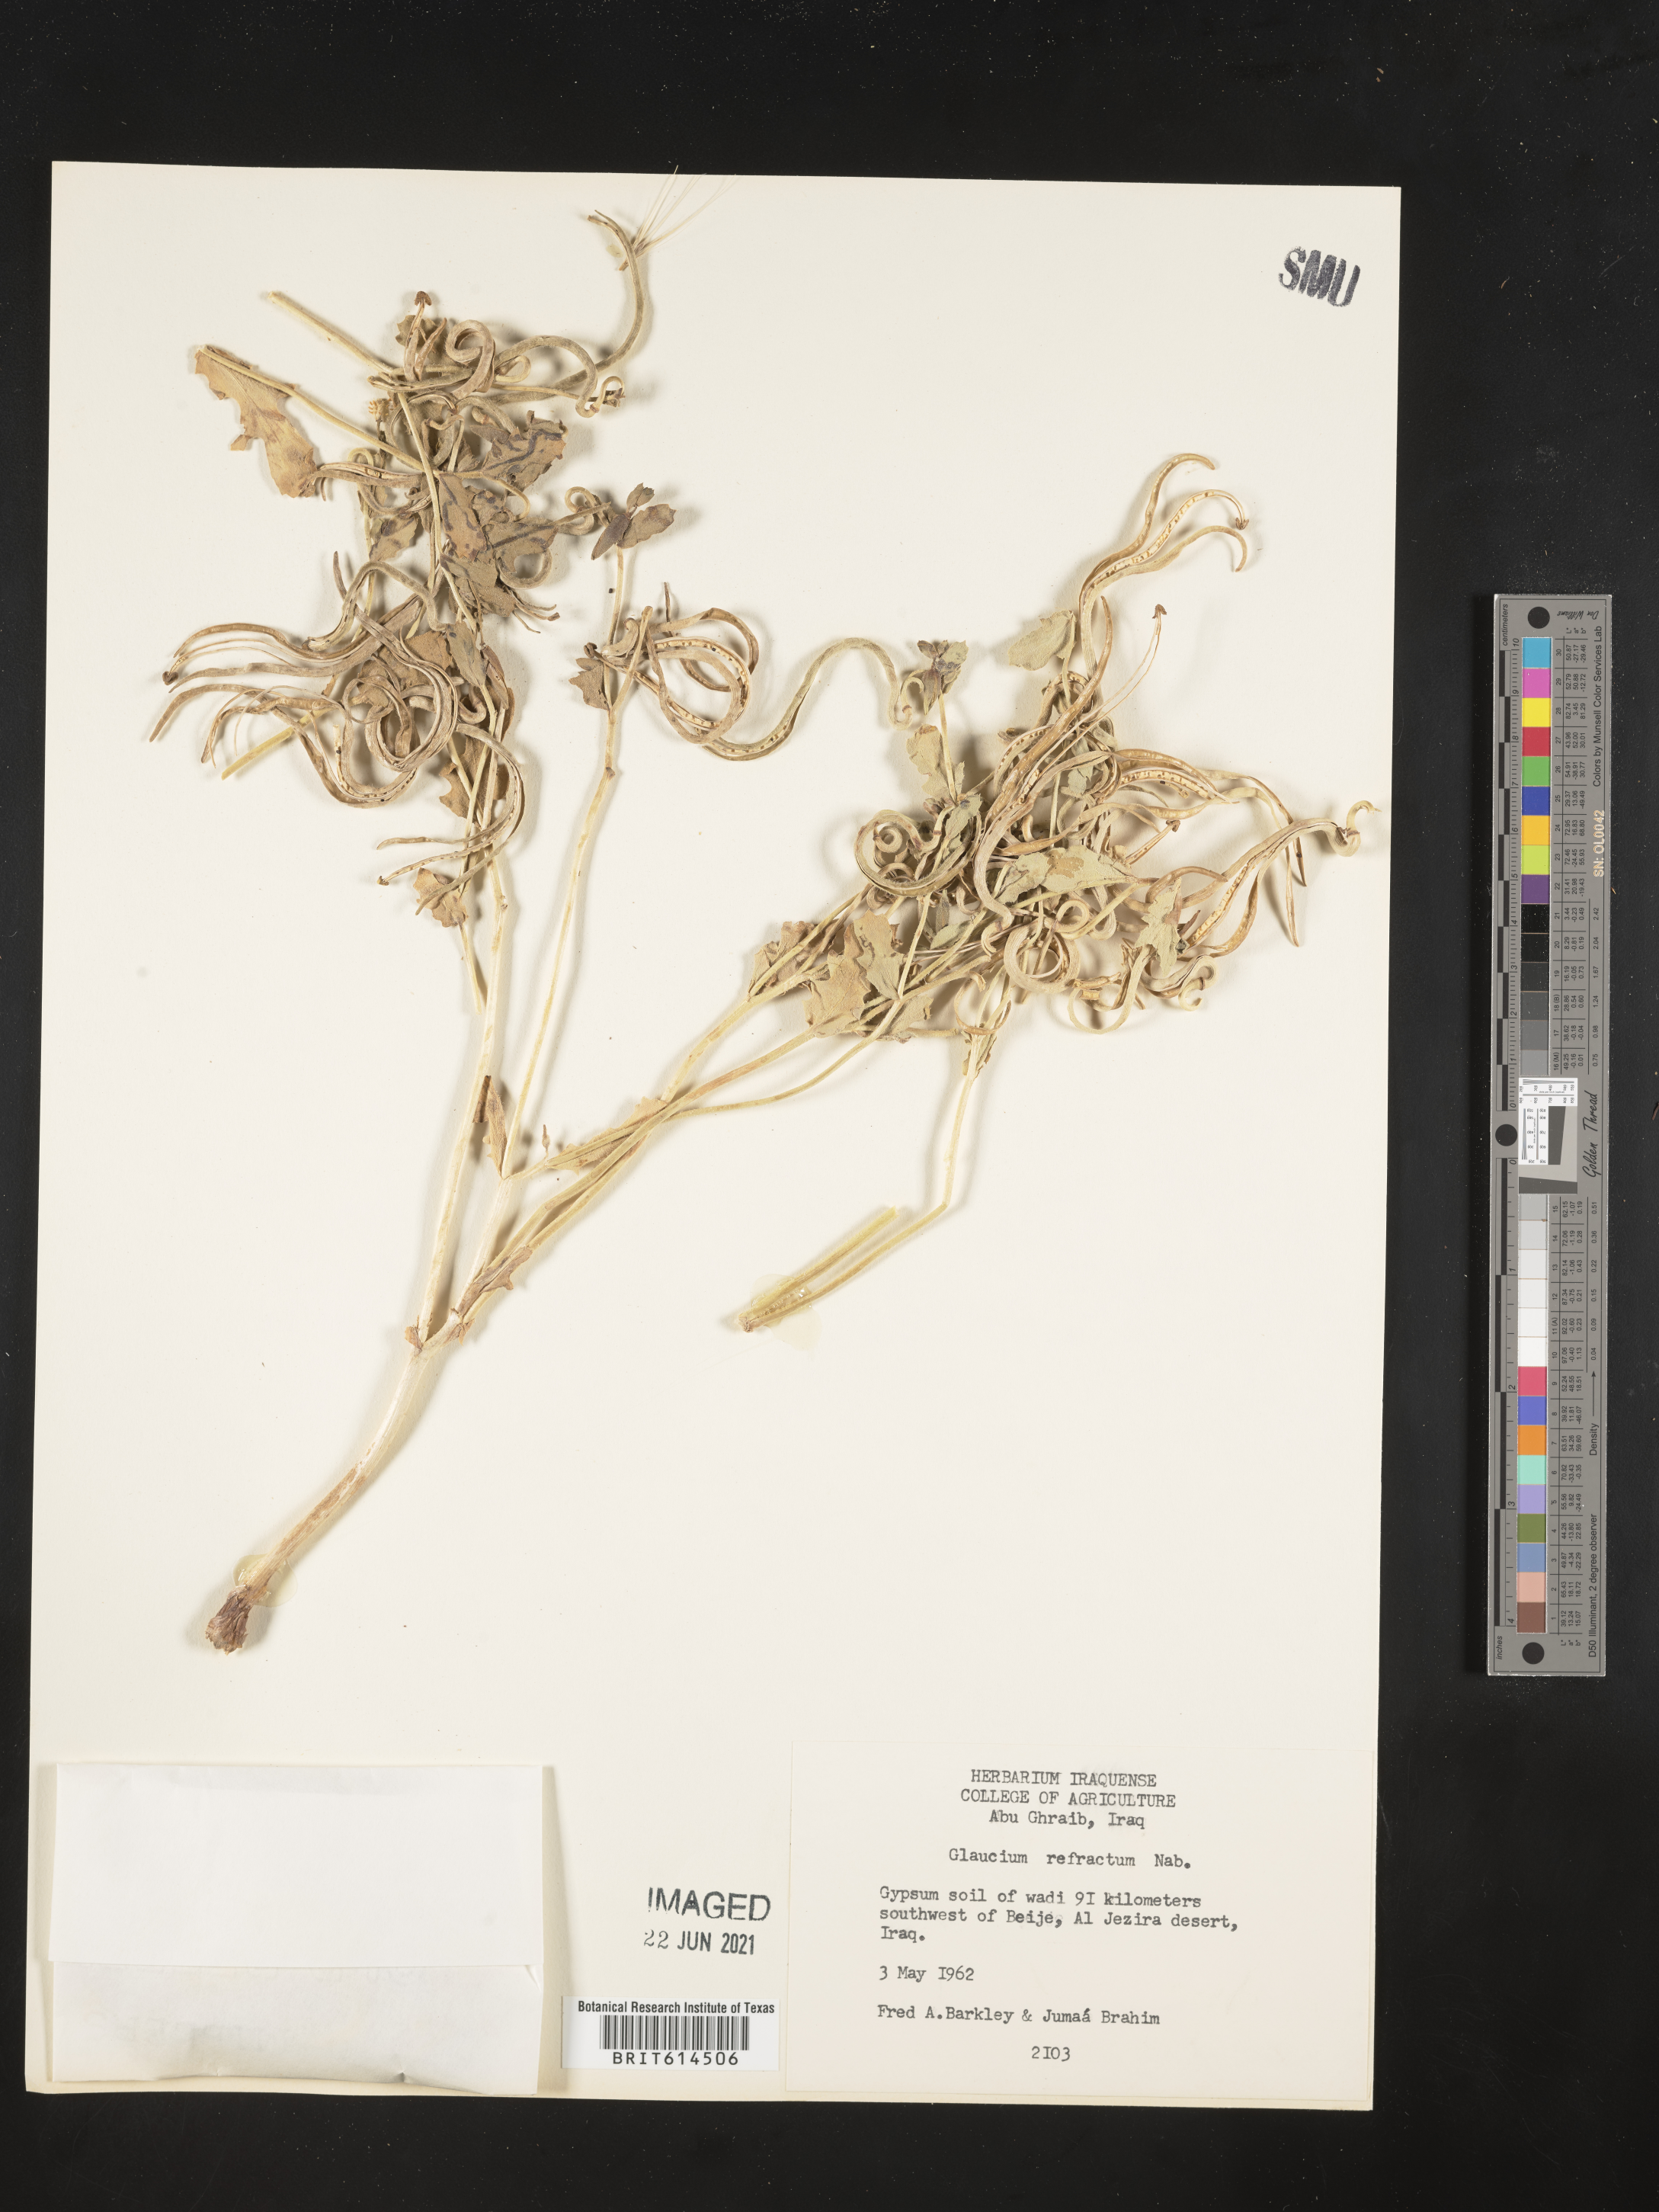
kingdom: Plantae
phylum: Tracheophyta
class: Magnoliopsida
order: Ranunculales
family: Papaveraceae
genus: Glaucium
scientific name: Glaucium corniculatum
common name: Red horned-poppy
